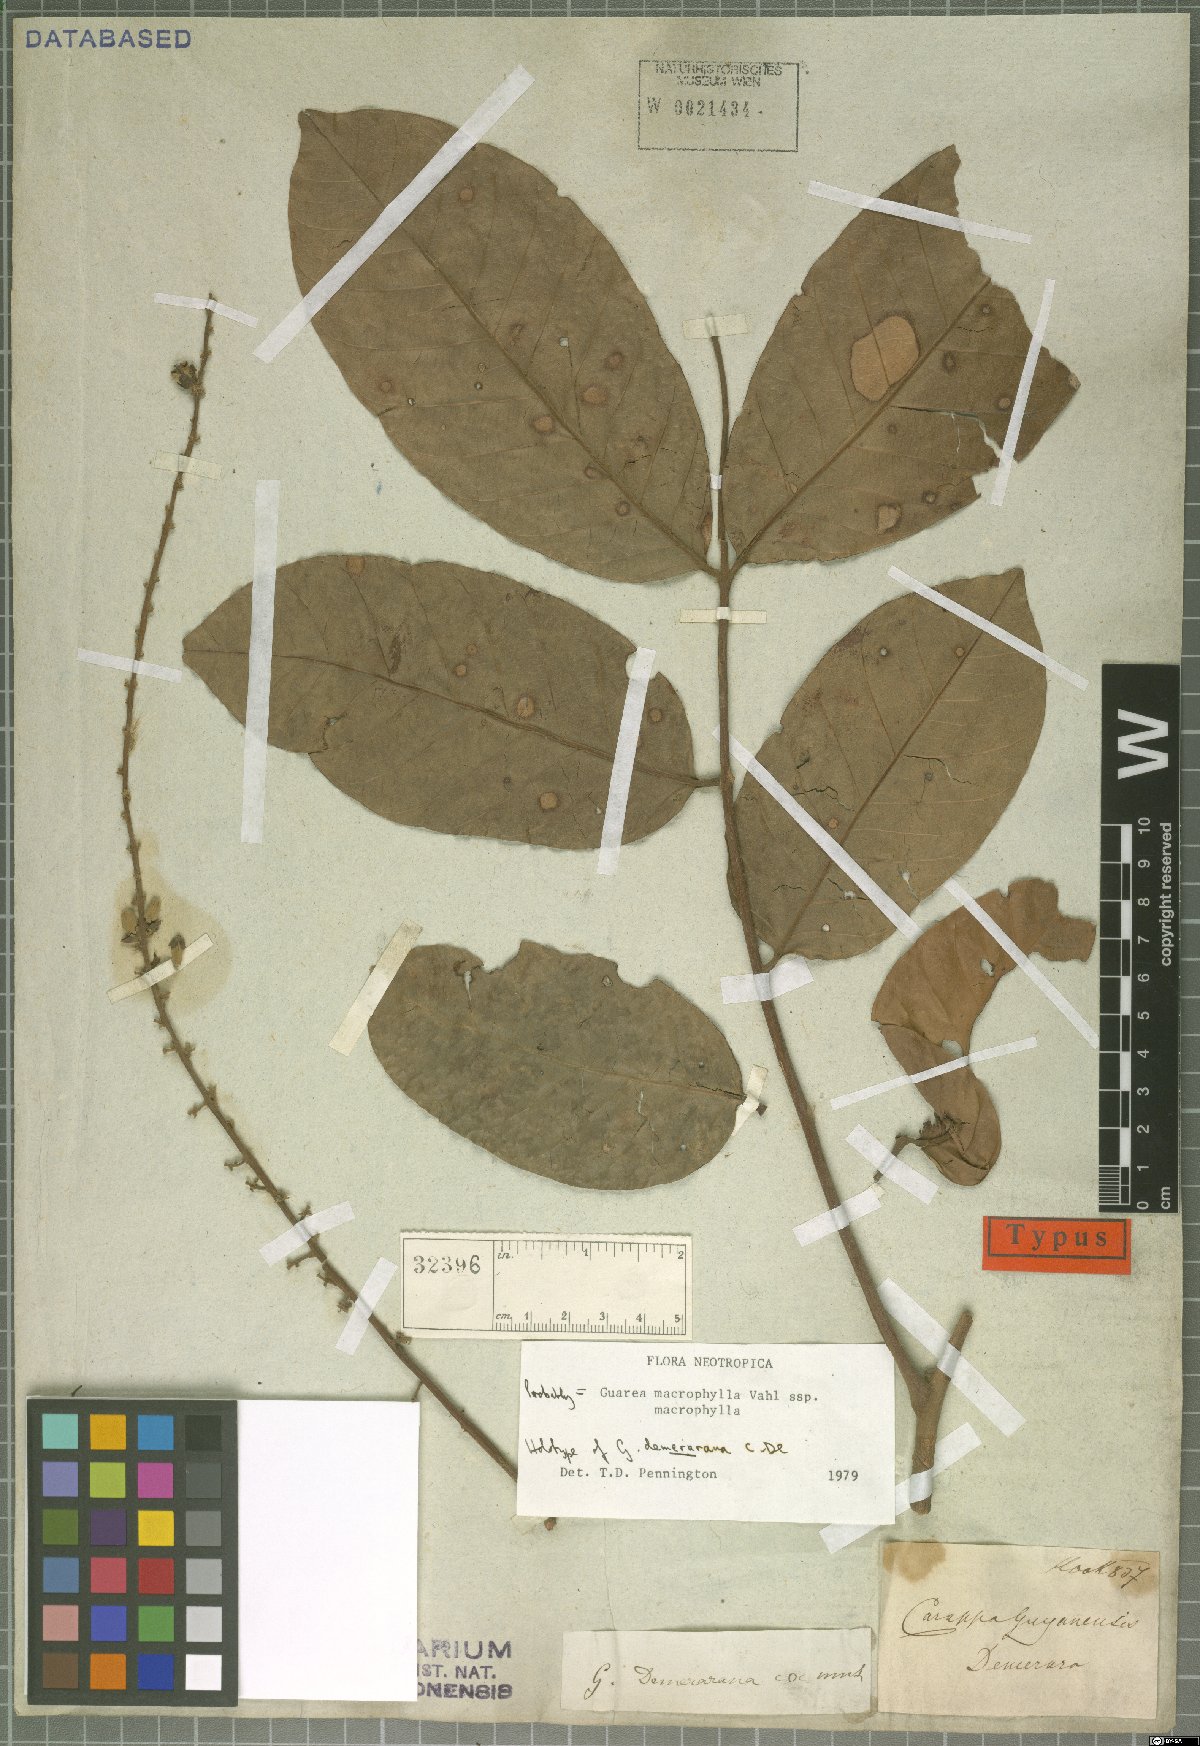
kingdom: Plantae
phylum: Tracheophyta
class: Magnoliopsida
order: Sapindales
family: Meliaceae
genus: Guarea
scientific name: Guarea macrophylla
